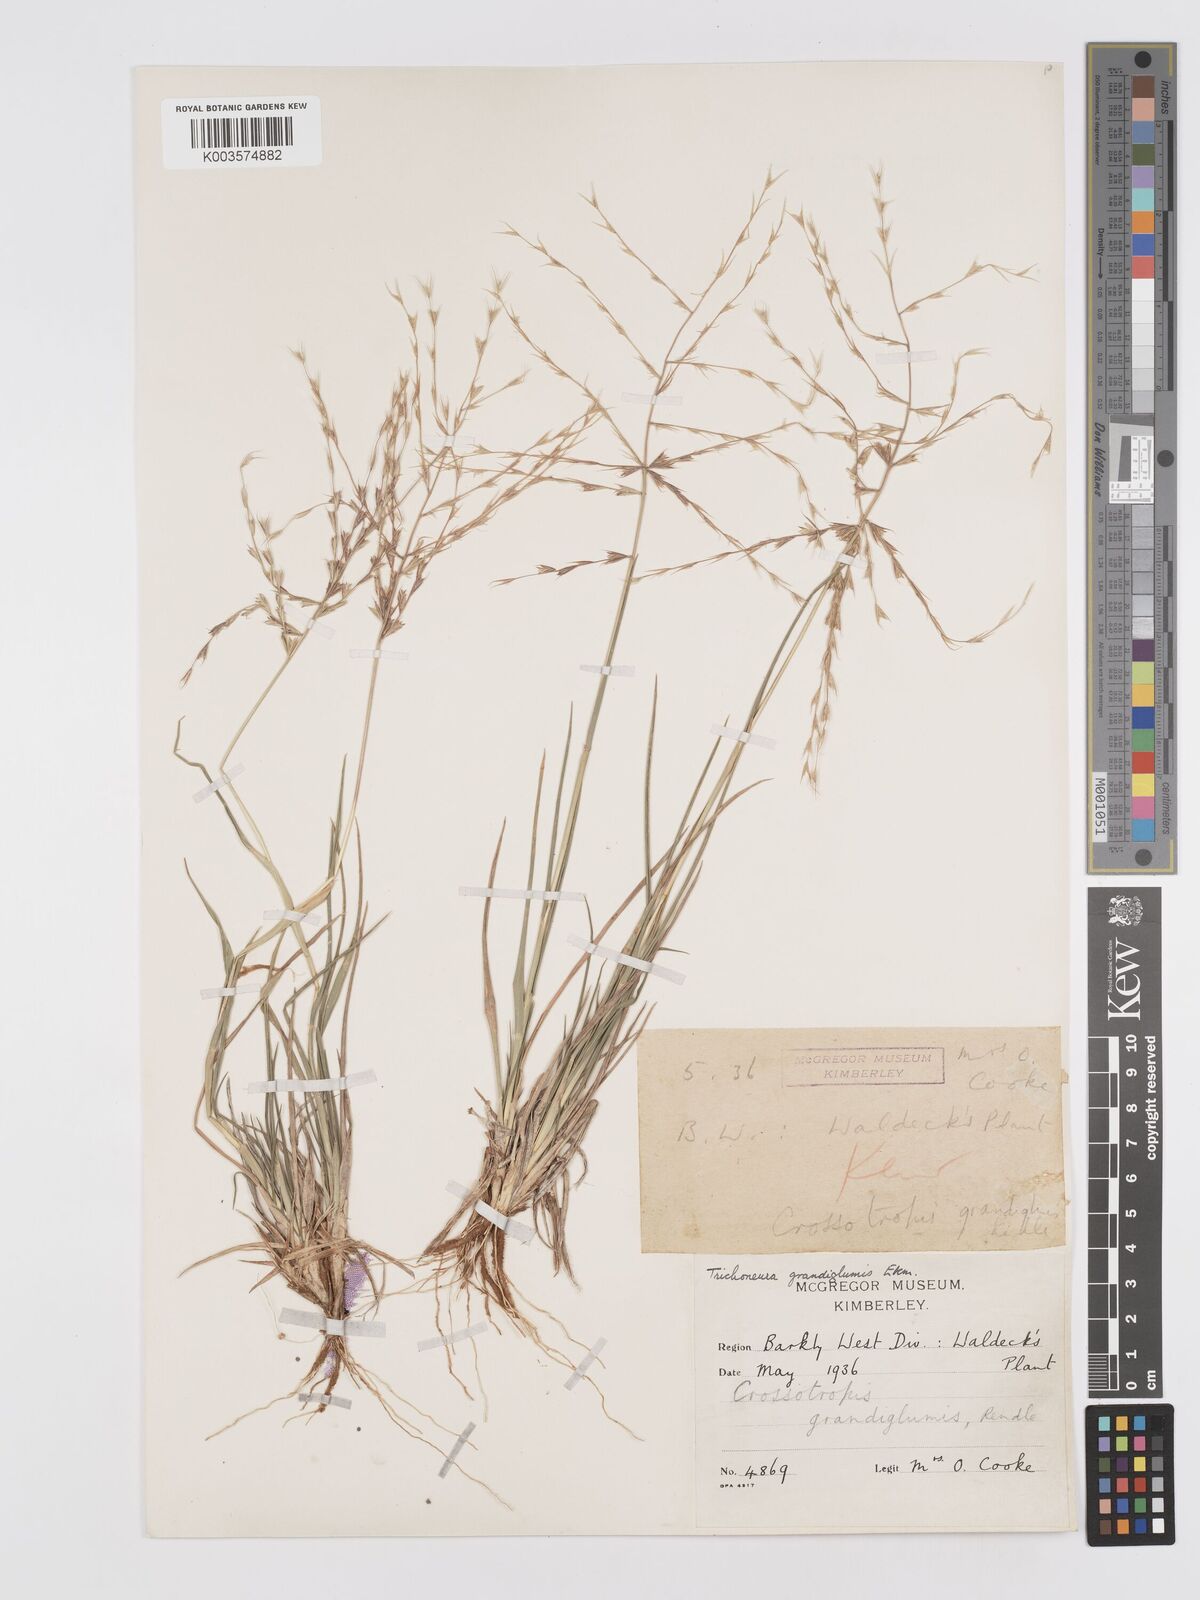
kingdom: Plantae
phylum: Tracheophyta
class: Liliopsida
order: Poales
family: Poaceae
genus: Trichoneura
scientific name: Trichoneura grandiglumis
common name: Rolling grass
